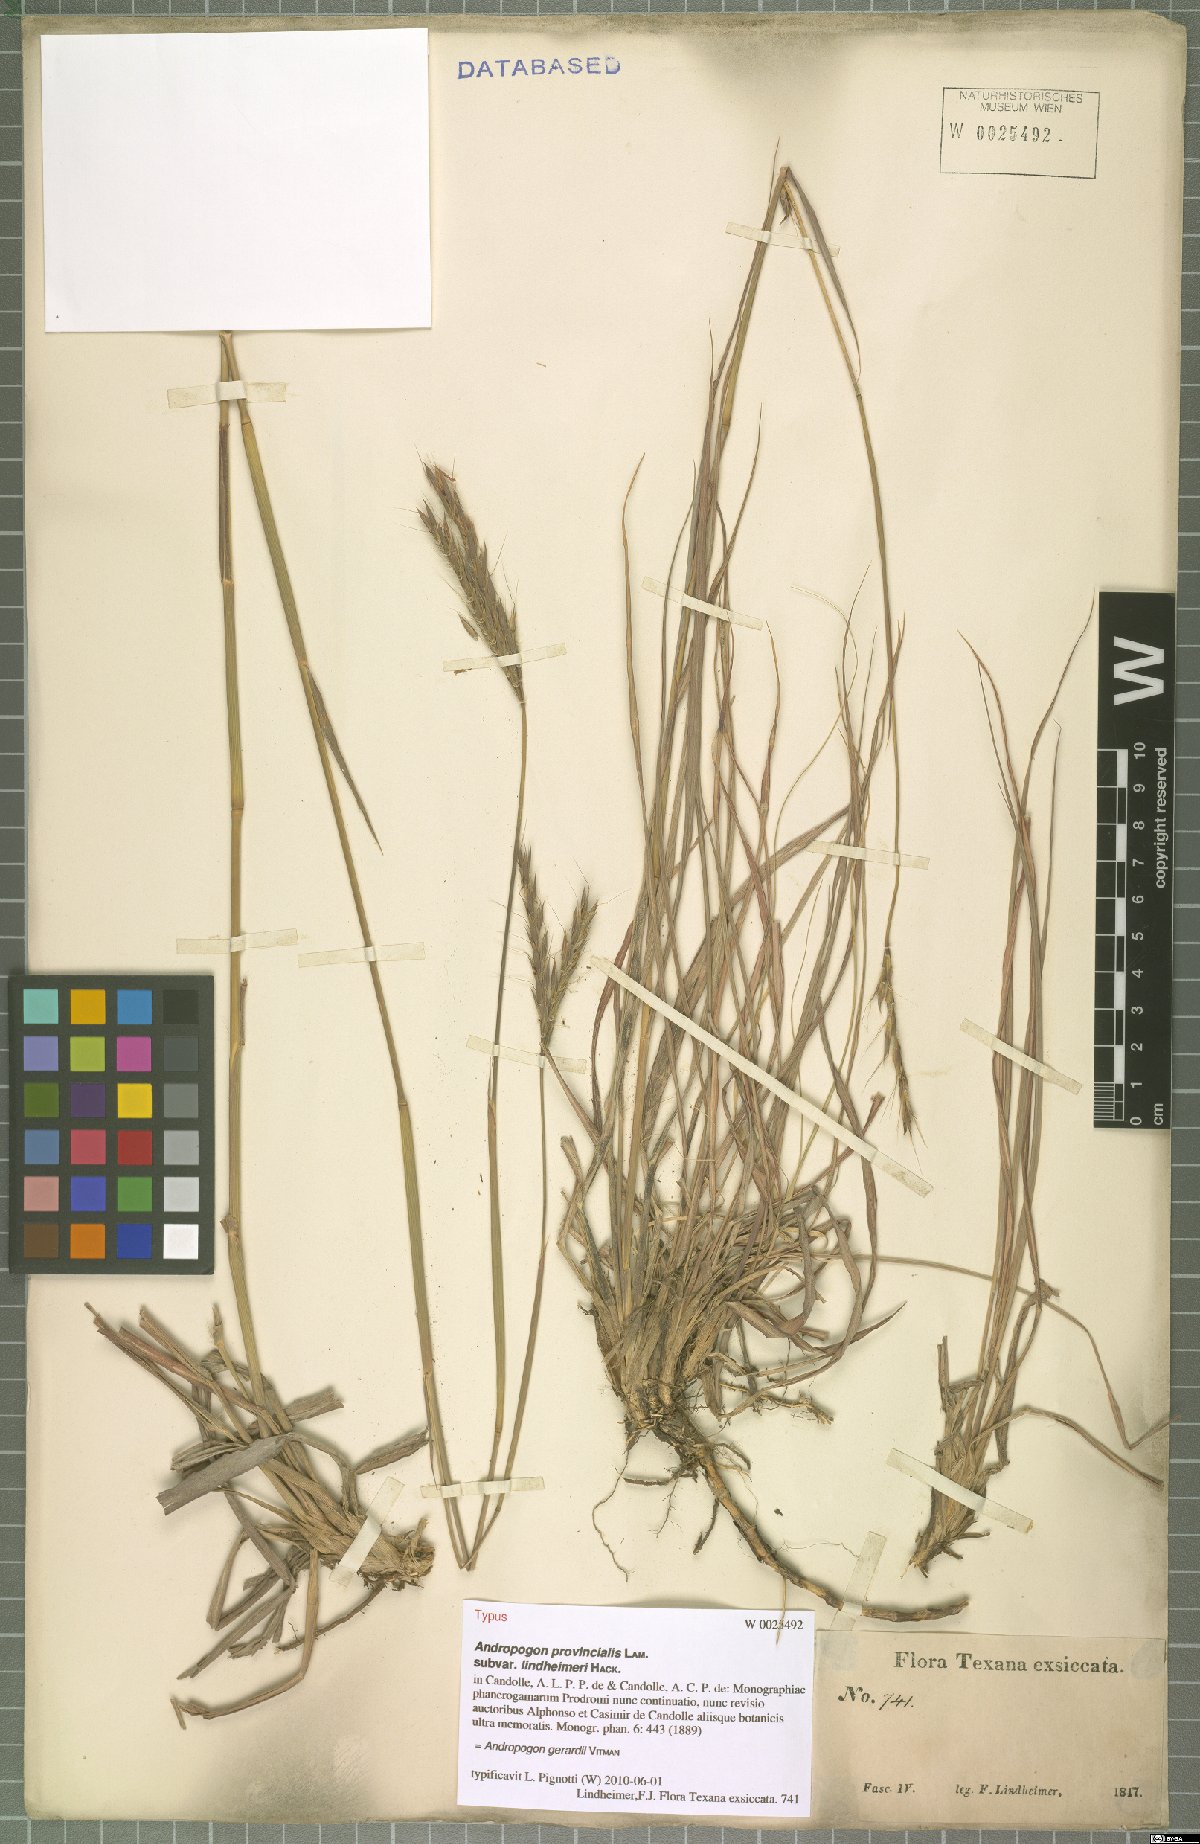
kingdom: Plantae
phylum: Tracheophyta
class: Liliopsida
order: Poales
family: Poaceae
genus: Andropogon
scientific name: Andropogon gerardi
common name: Big bluestem
